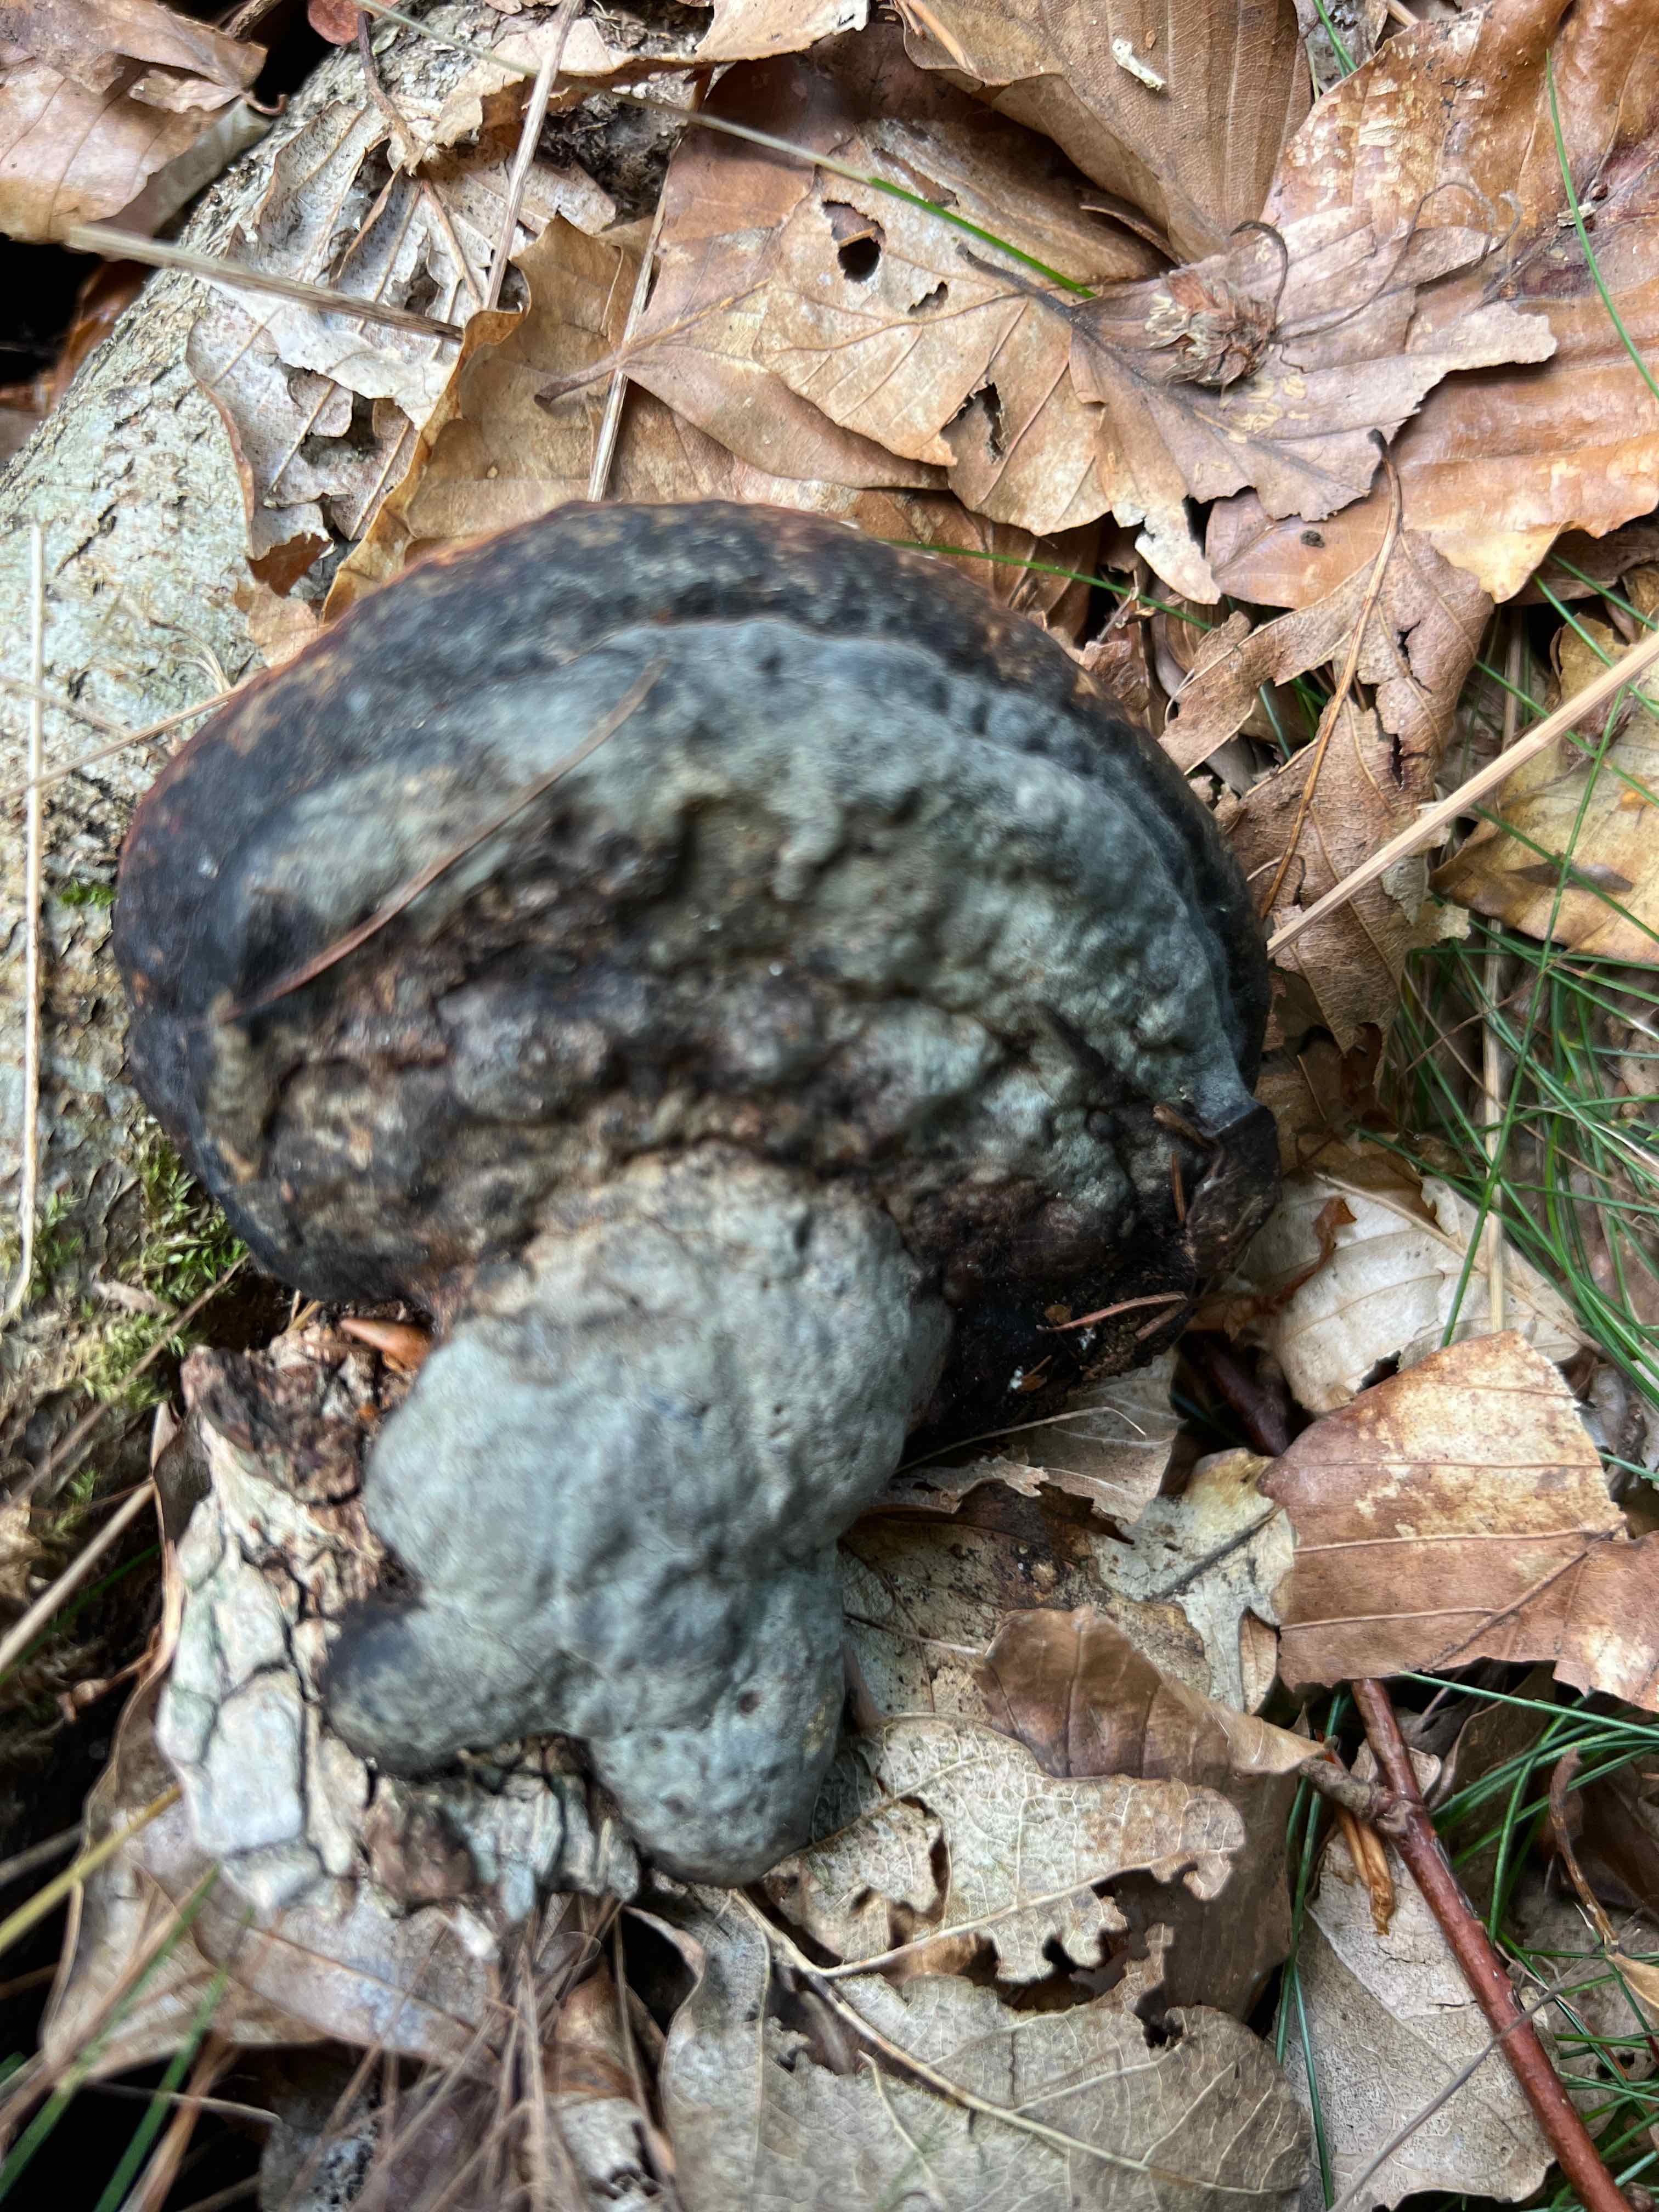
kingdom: Fungi
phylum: Basidiomycota
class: Agaricomycetes
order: Polyporales
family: Fomitopsidaceae
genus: Fomitopsis
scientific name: Fomitopsis betulina
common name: birkeporesvamp
